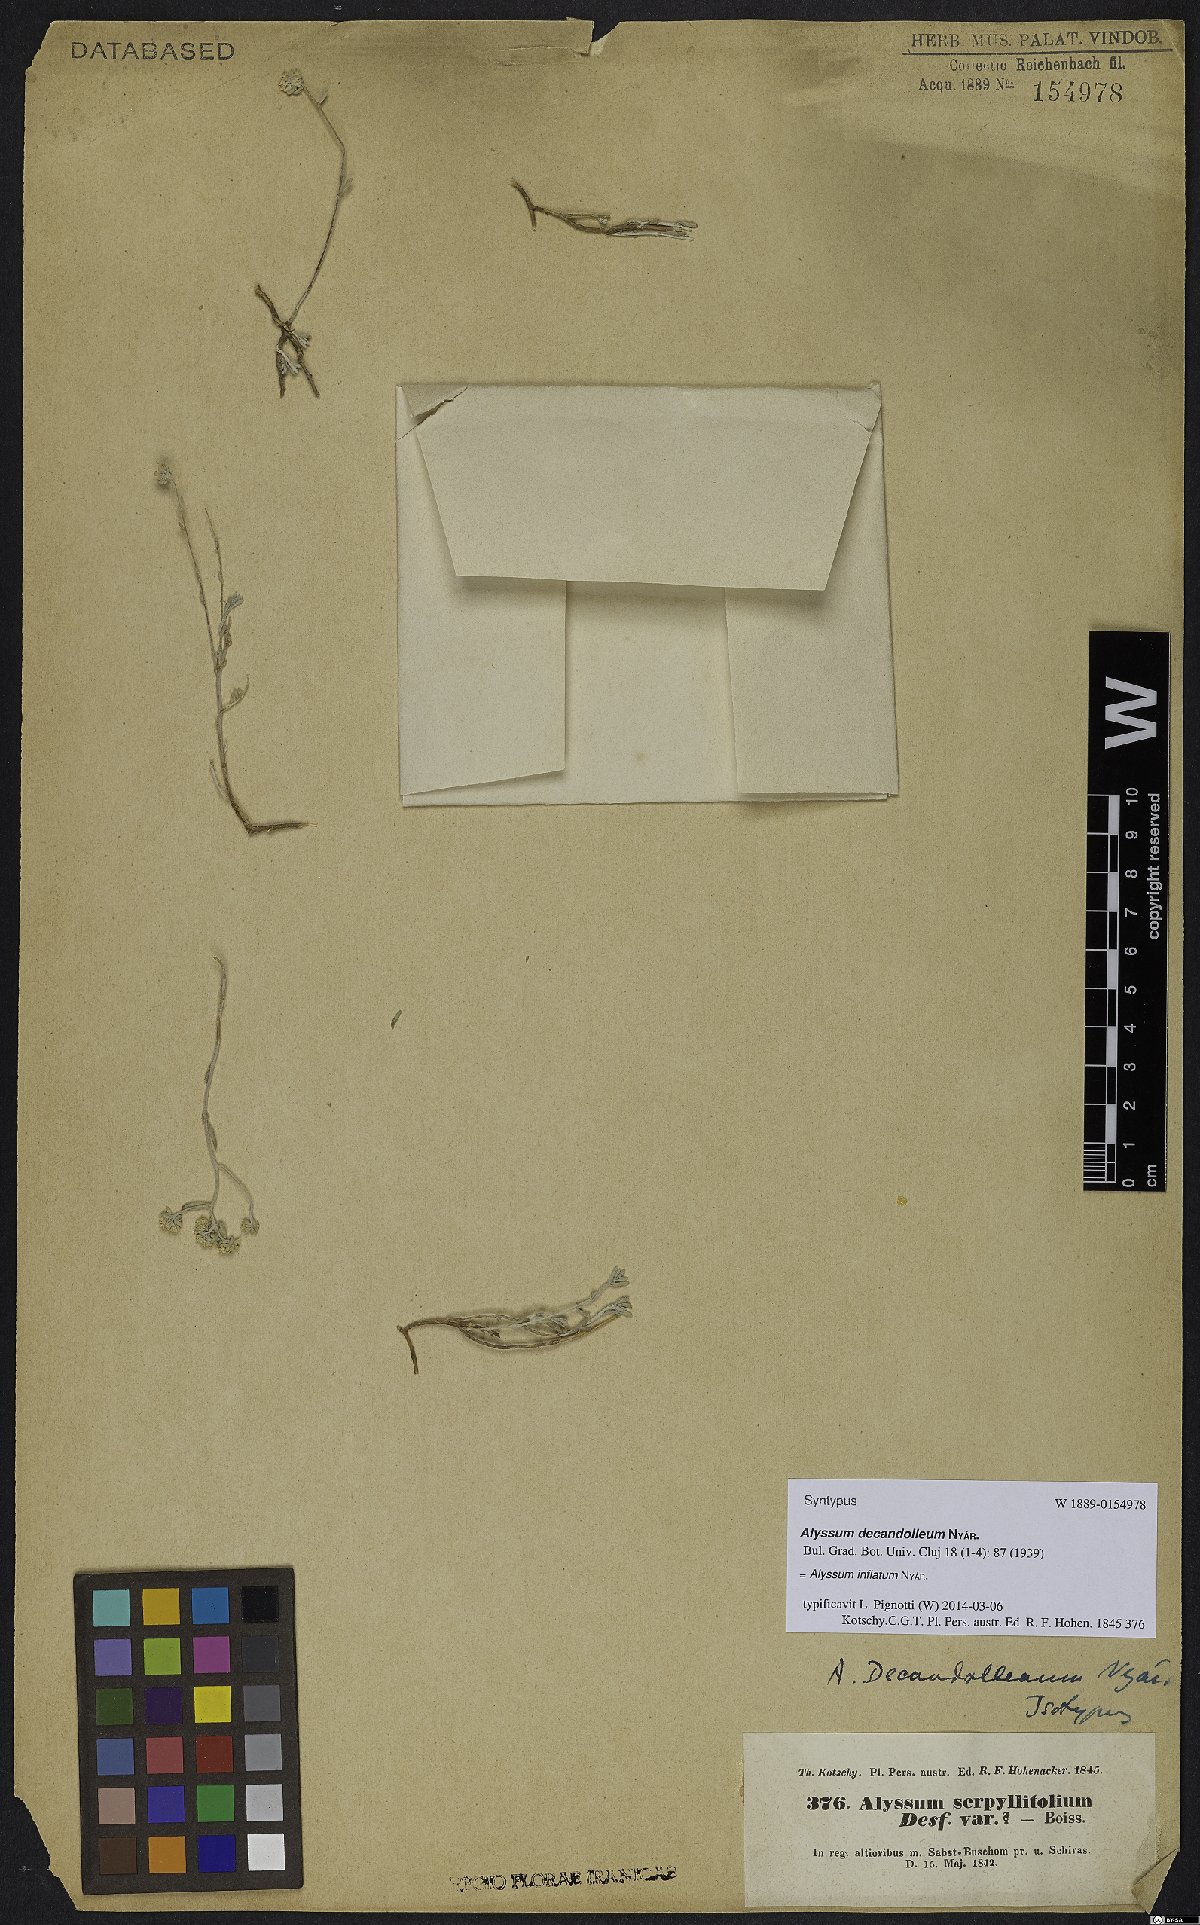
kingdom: Plantae
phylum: Tracheophyta
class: Magnoliopsida
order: Brassicales
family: Brassicaceae
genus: Odontarrhena
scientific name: Odontarrhena inflata
